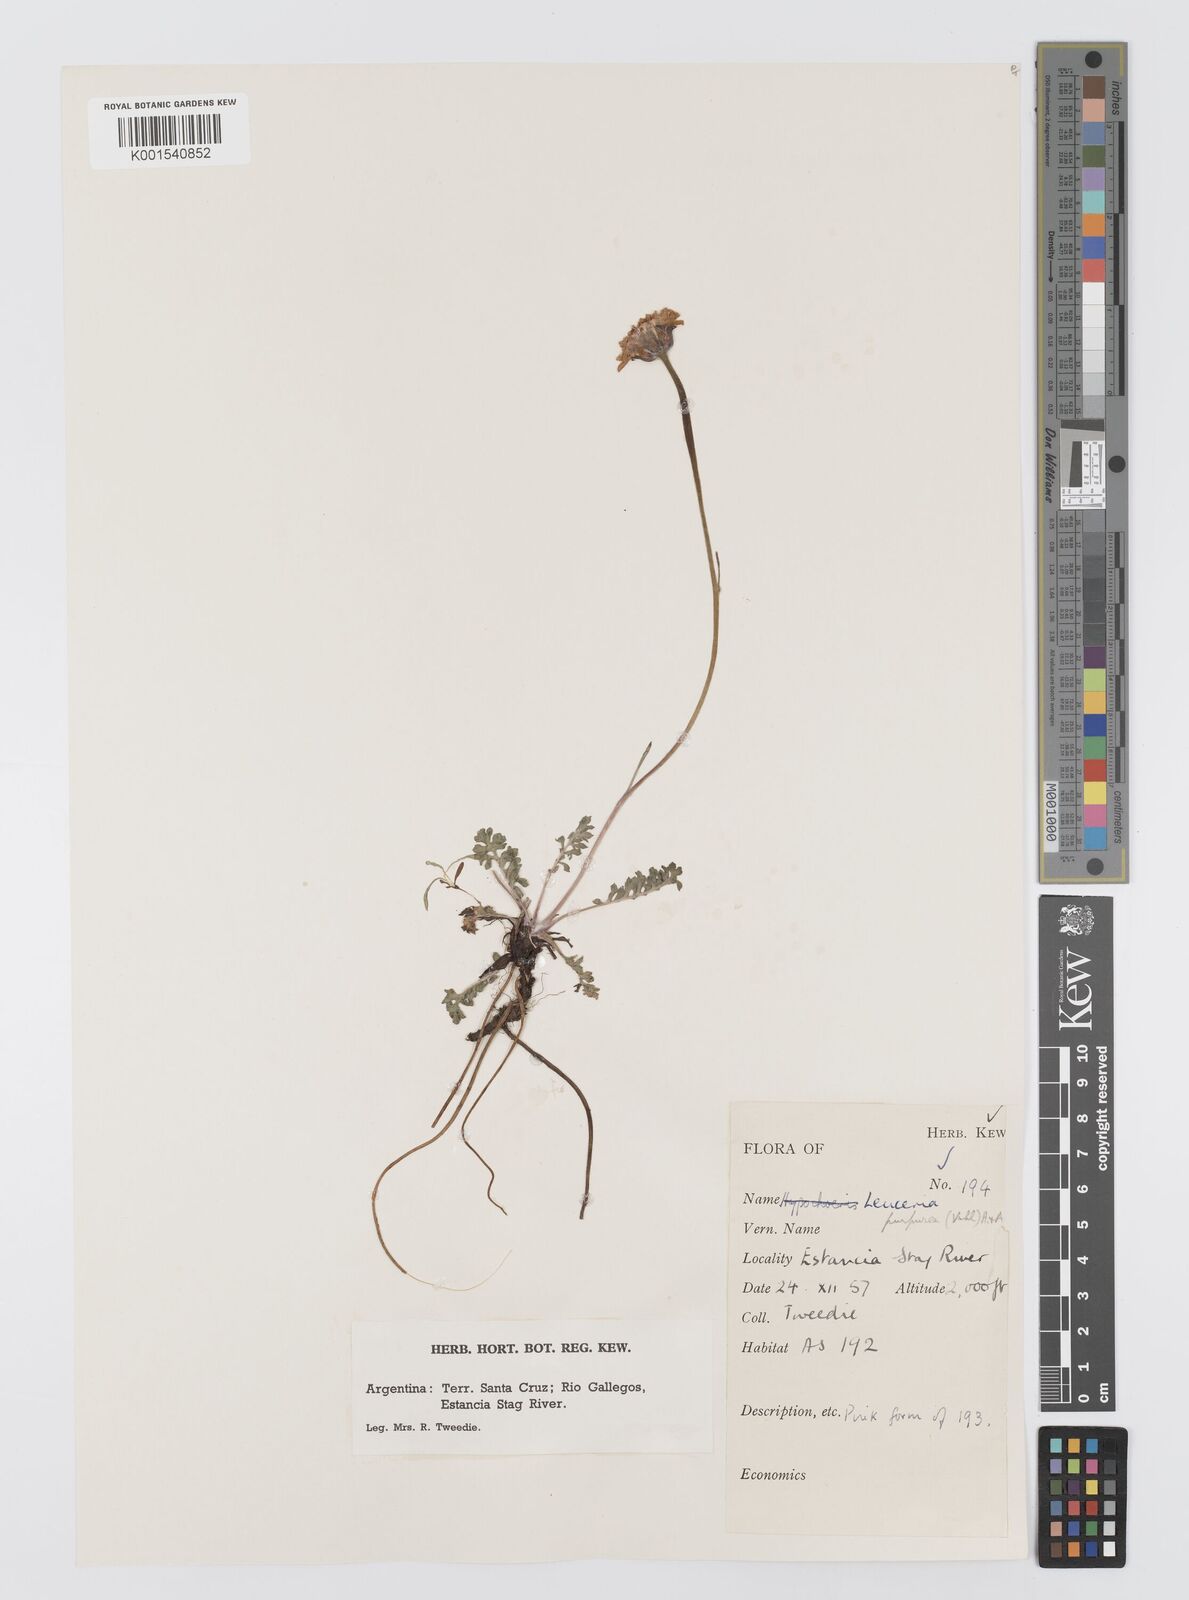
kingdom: Plantae
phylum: Tracheophyta
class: Magnoliopsida
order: Asterales
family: Asteraceae
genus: Leucheria
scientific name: Leucheria purpurea
